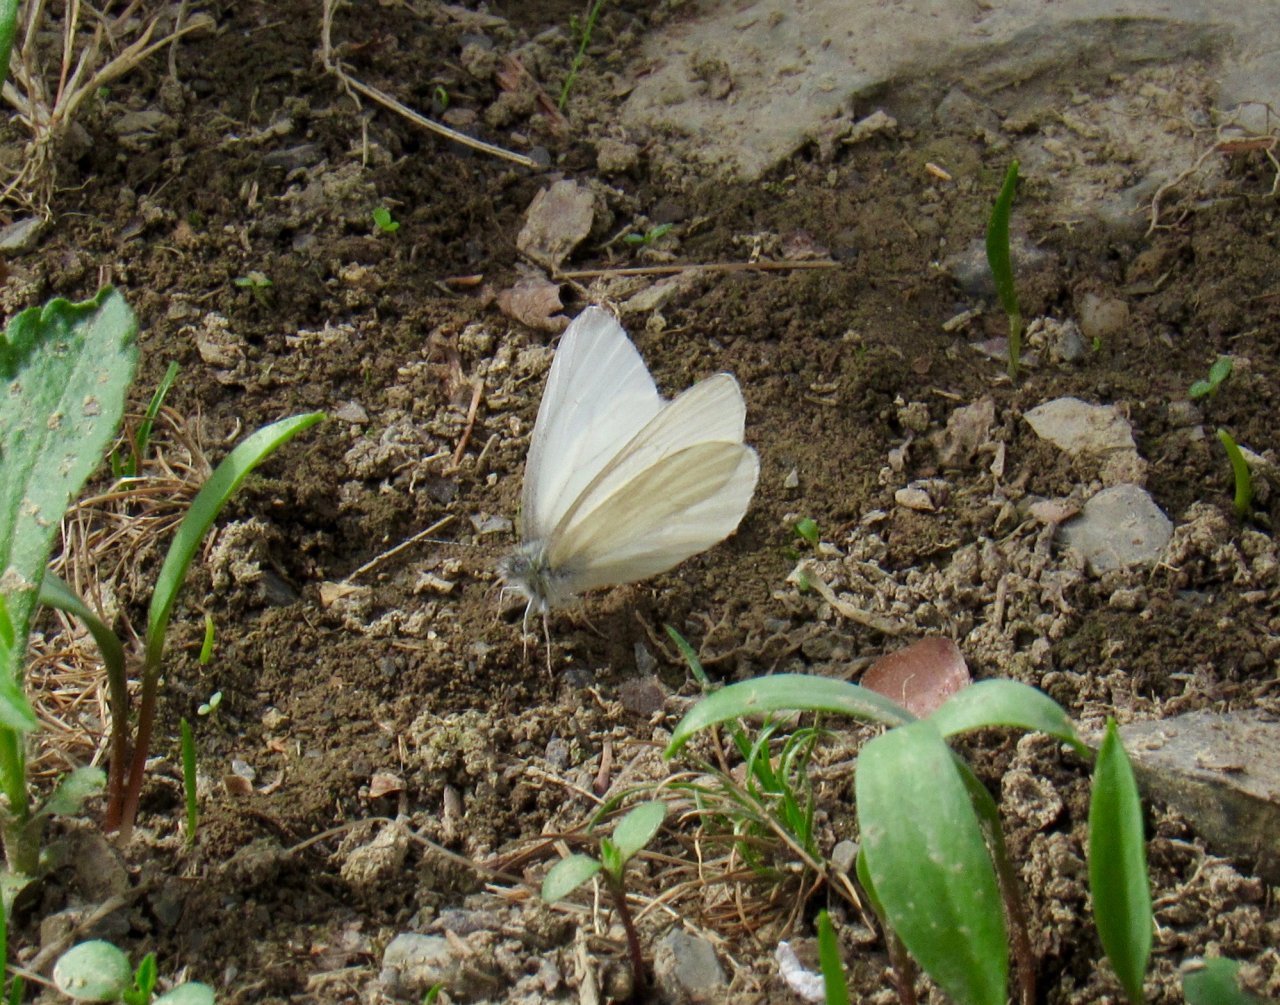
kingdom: Animalia
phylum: Arthropoda
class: Insecta
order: Lepidoptera
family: Pieridae
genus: Pieris
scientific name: Pieris virginiensis
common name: West Virginia White
